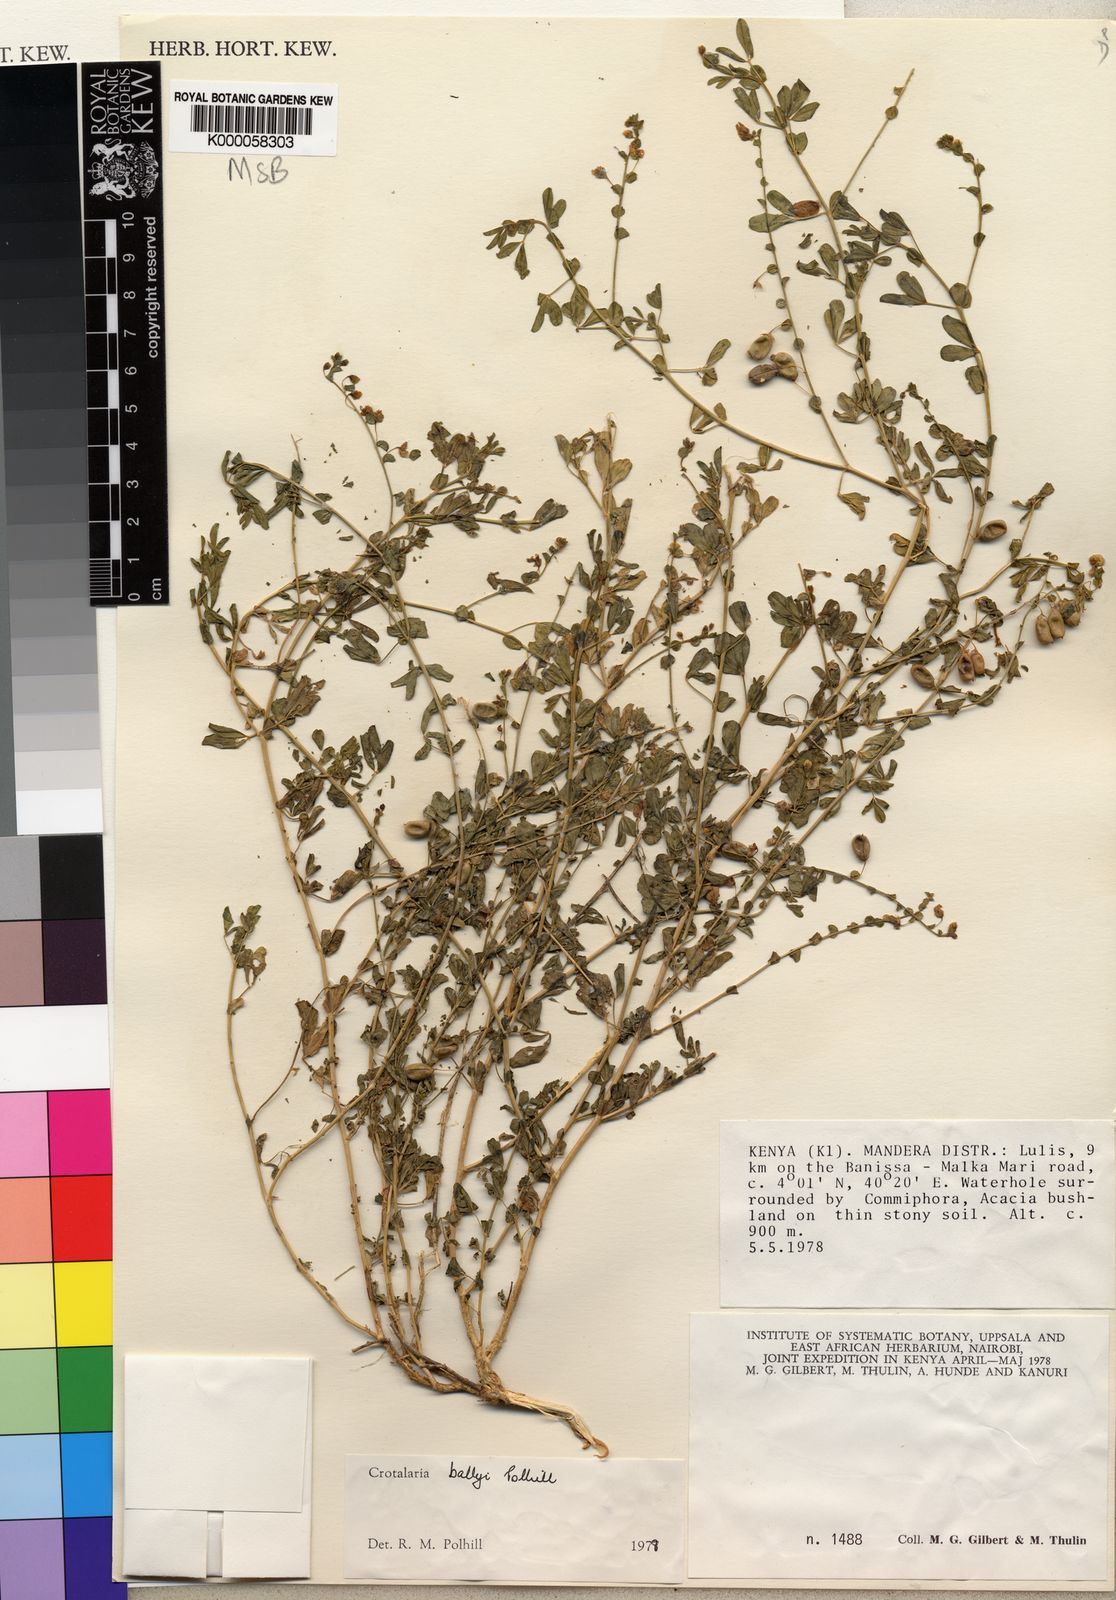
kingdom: Plantae
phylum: Tracheophyta
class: Magnoliopsida
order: Fabales
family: Fabaceae
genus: Crotalaria
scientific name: Crotalaria ballyi
